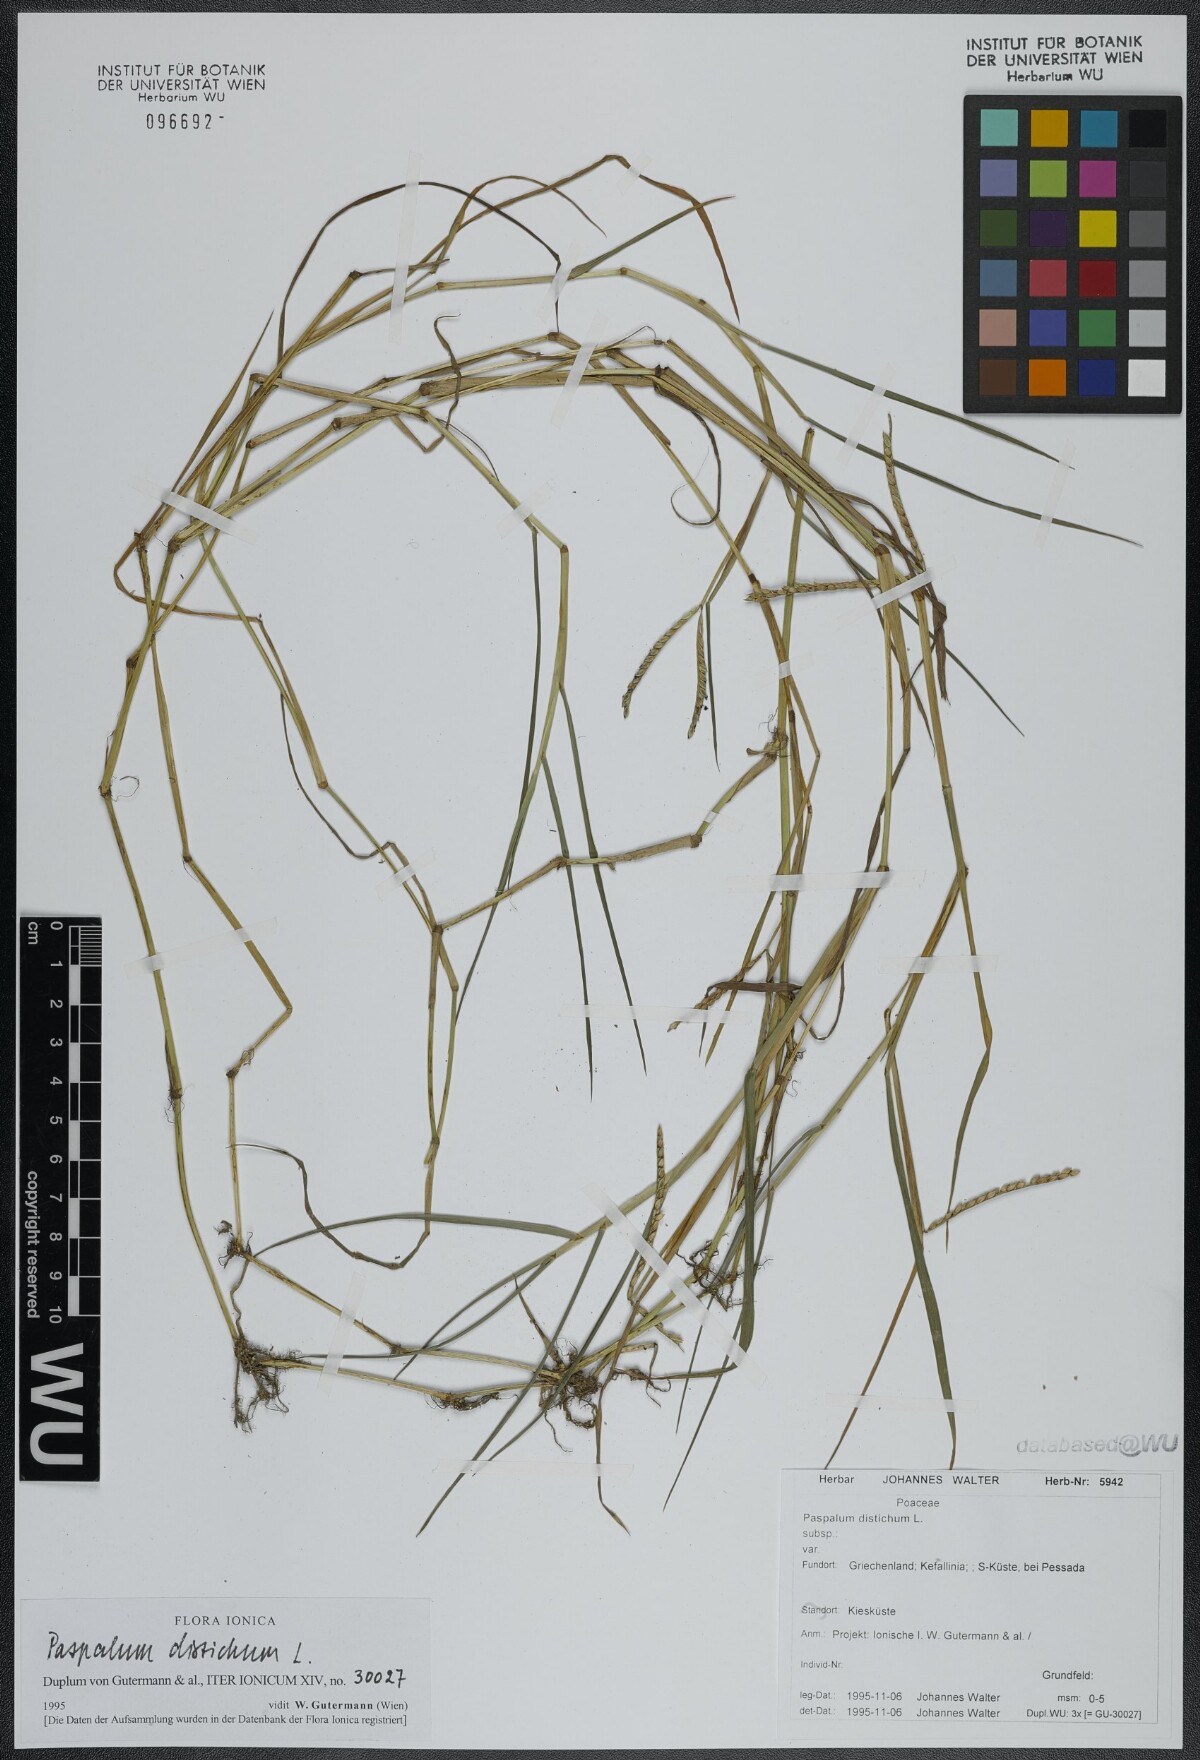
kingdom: Plantae
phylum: Tracheophyta
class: Liliopsida
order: Poales
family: Poaceae
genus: Paspalum
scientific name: Paspalum distichum
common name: Knotgrass
